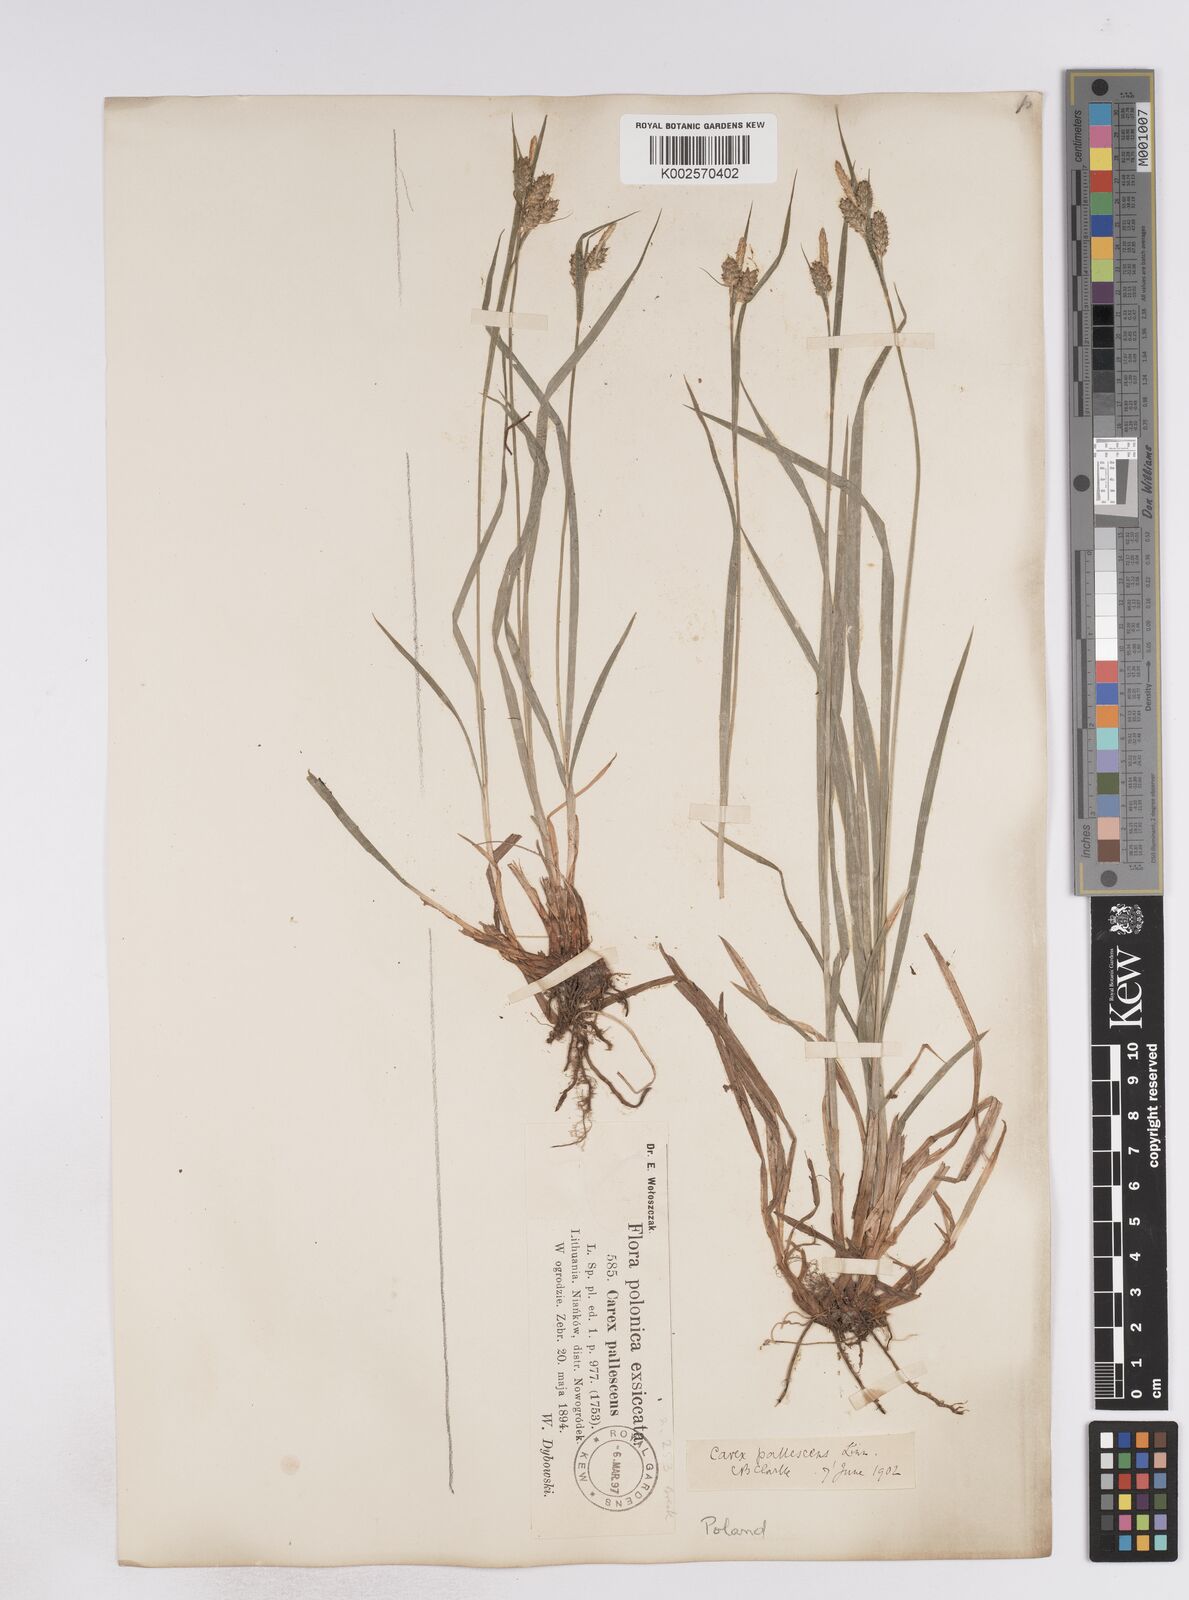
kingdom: Plantae
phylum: Tracheophyta
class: Liliopsida
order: Poales
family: Cyperaceae
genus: Carex
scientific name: Carex pallescens
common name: Pale sedge
